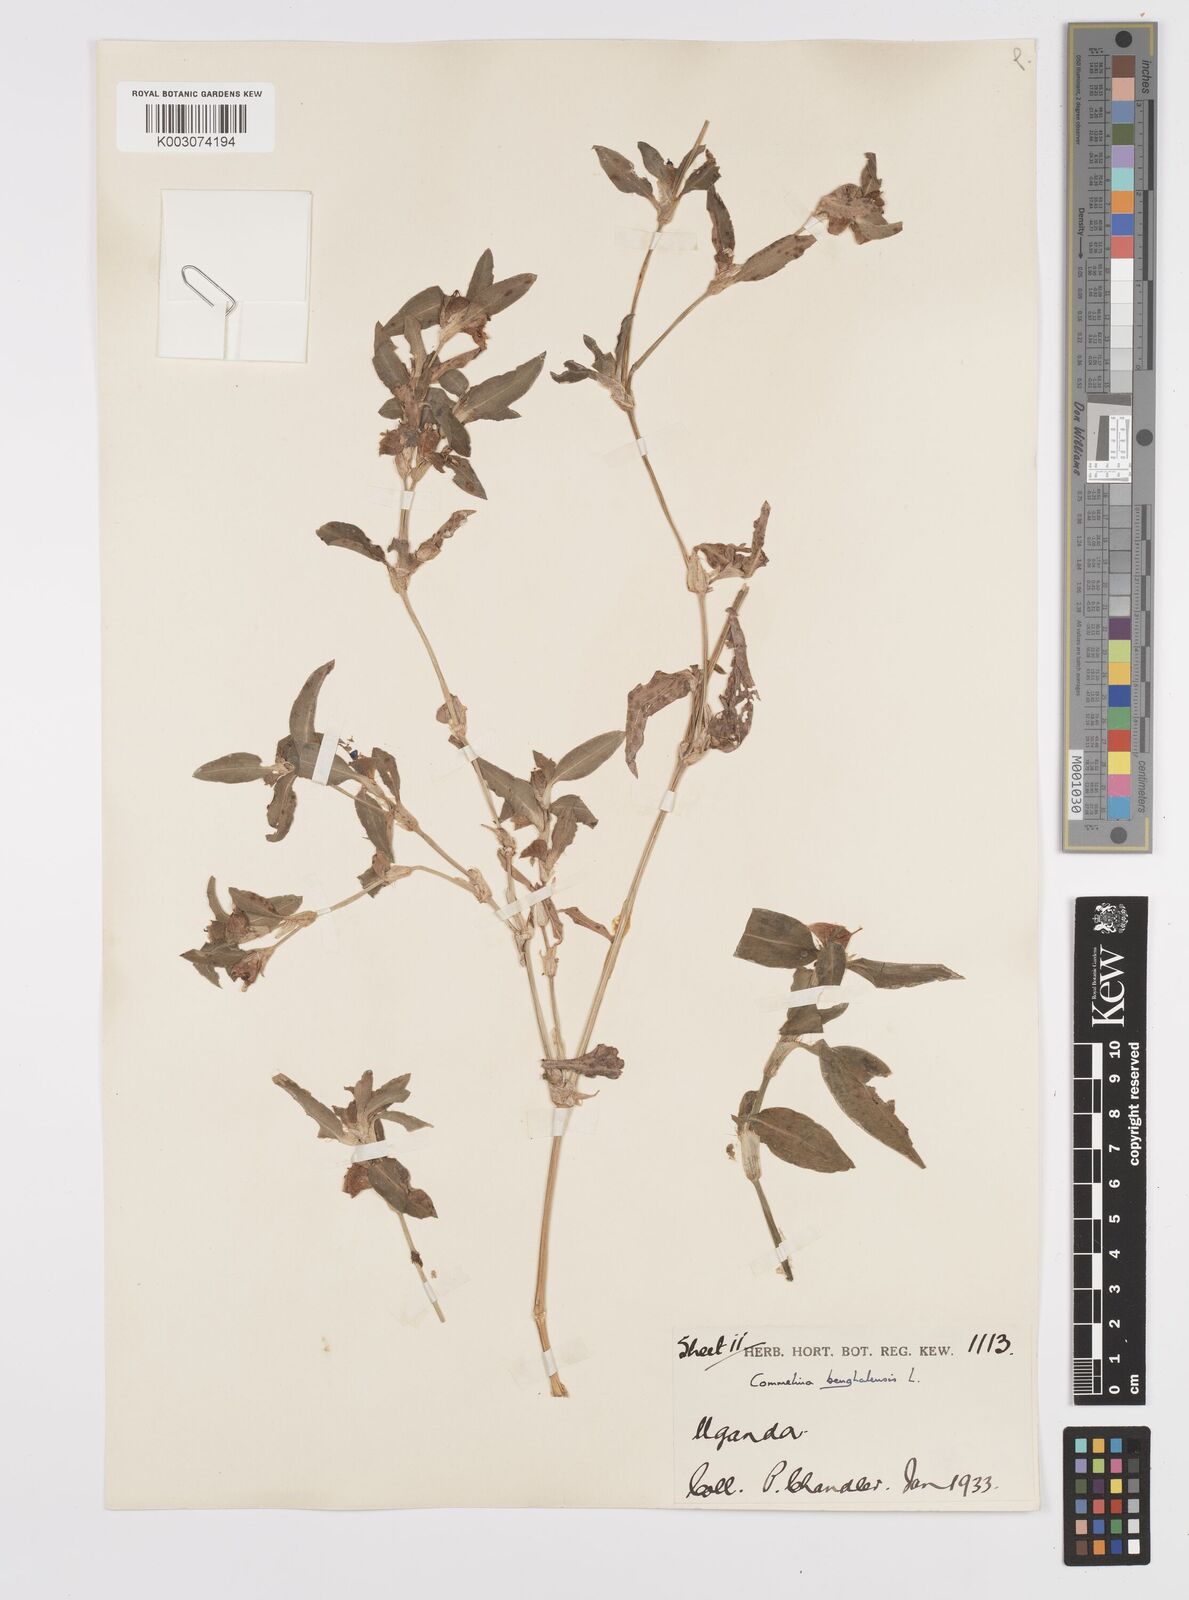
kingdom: Plantae
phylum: Tracheophyta
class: Liliopsida
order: Commelinales
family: Commelinaceae
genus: Commelina
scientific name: Commelina benghalensis
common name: Jio
